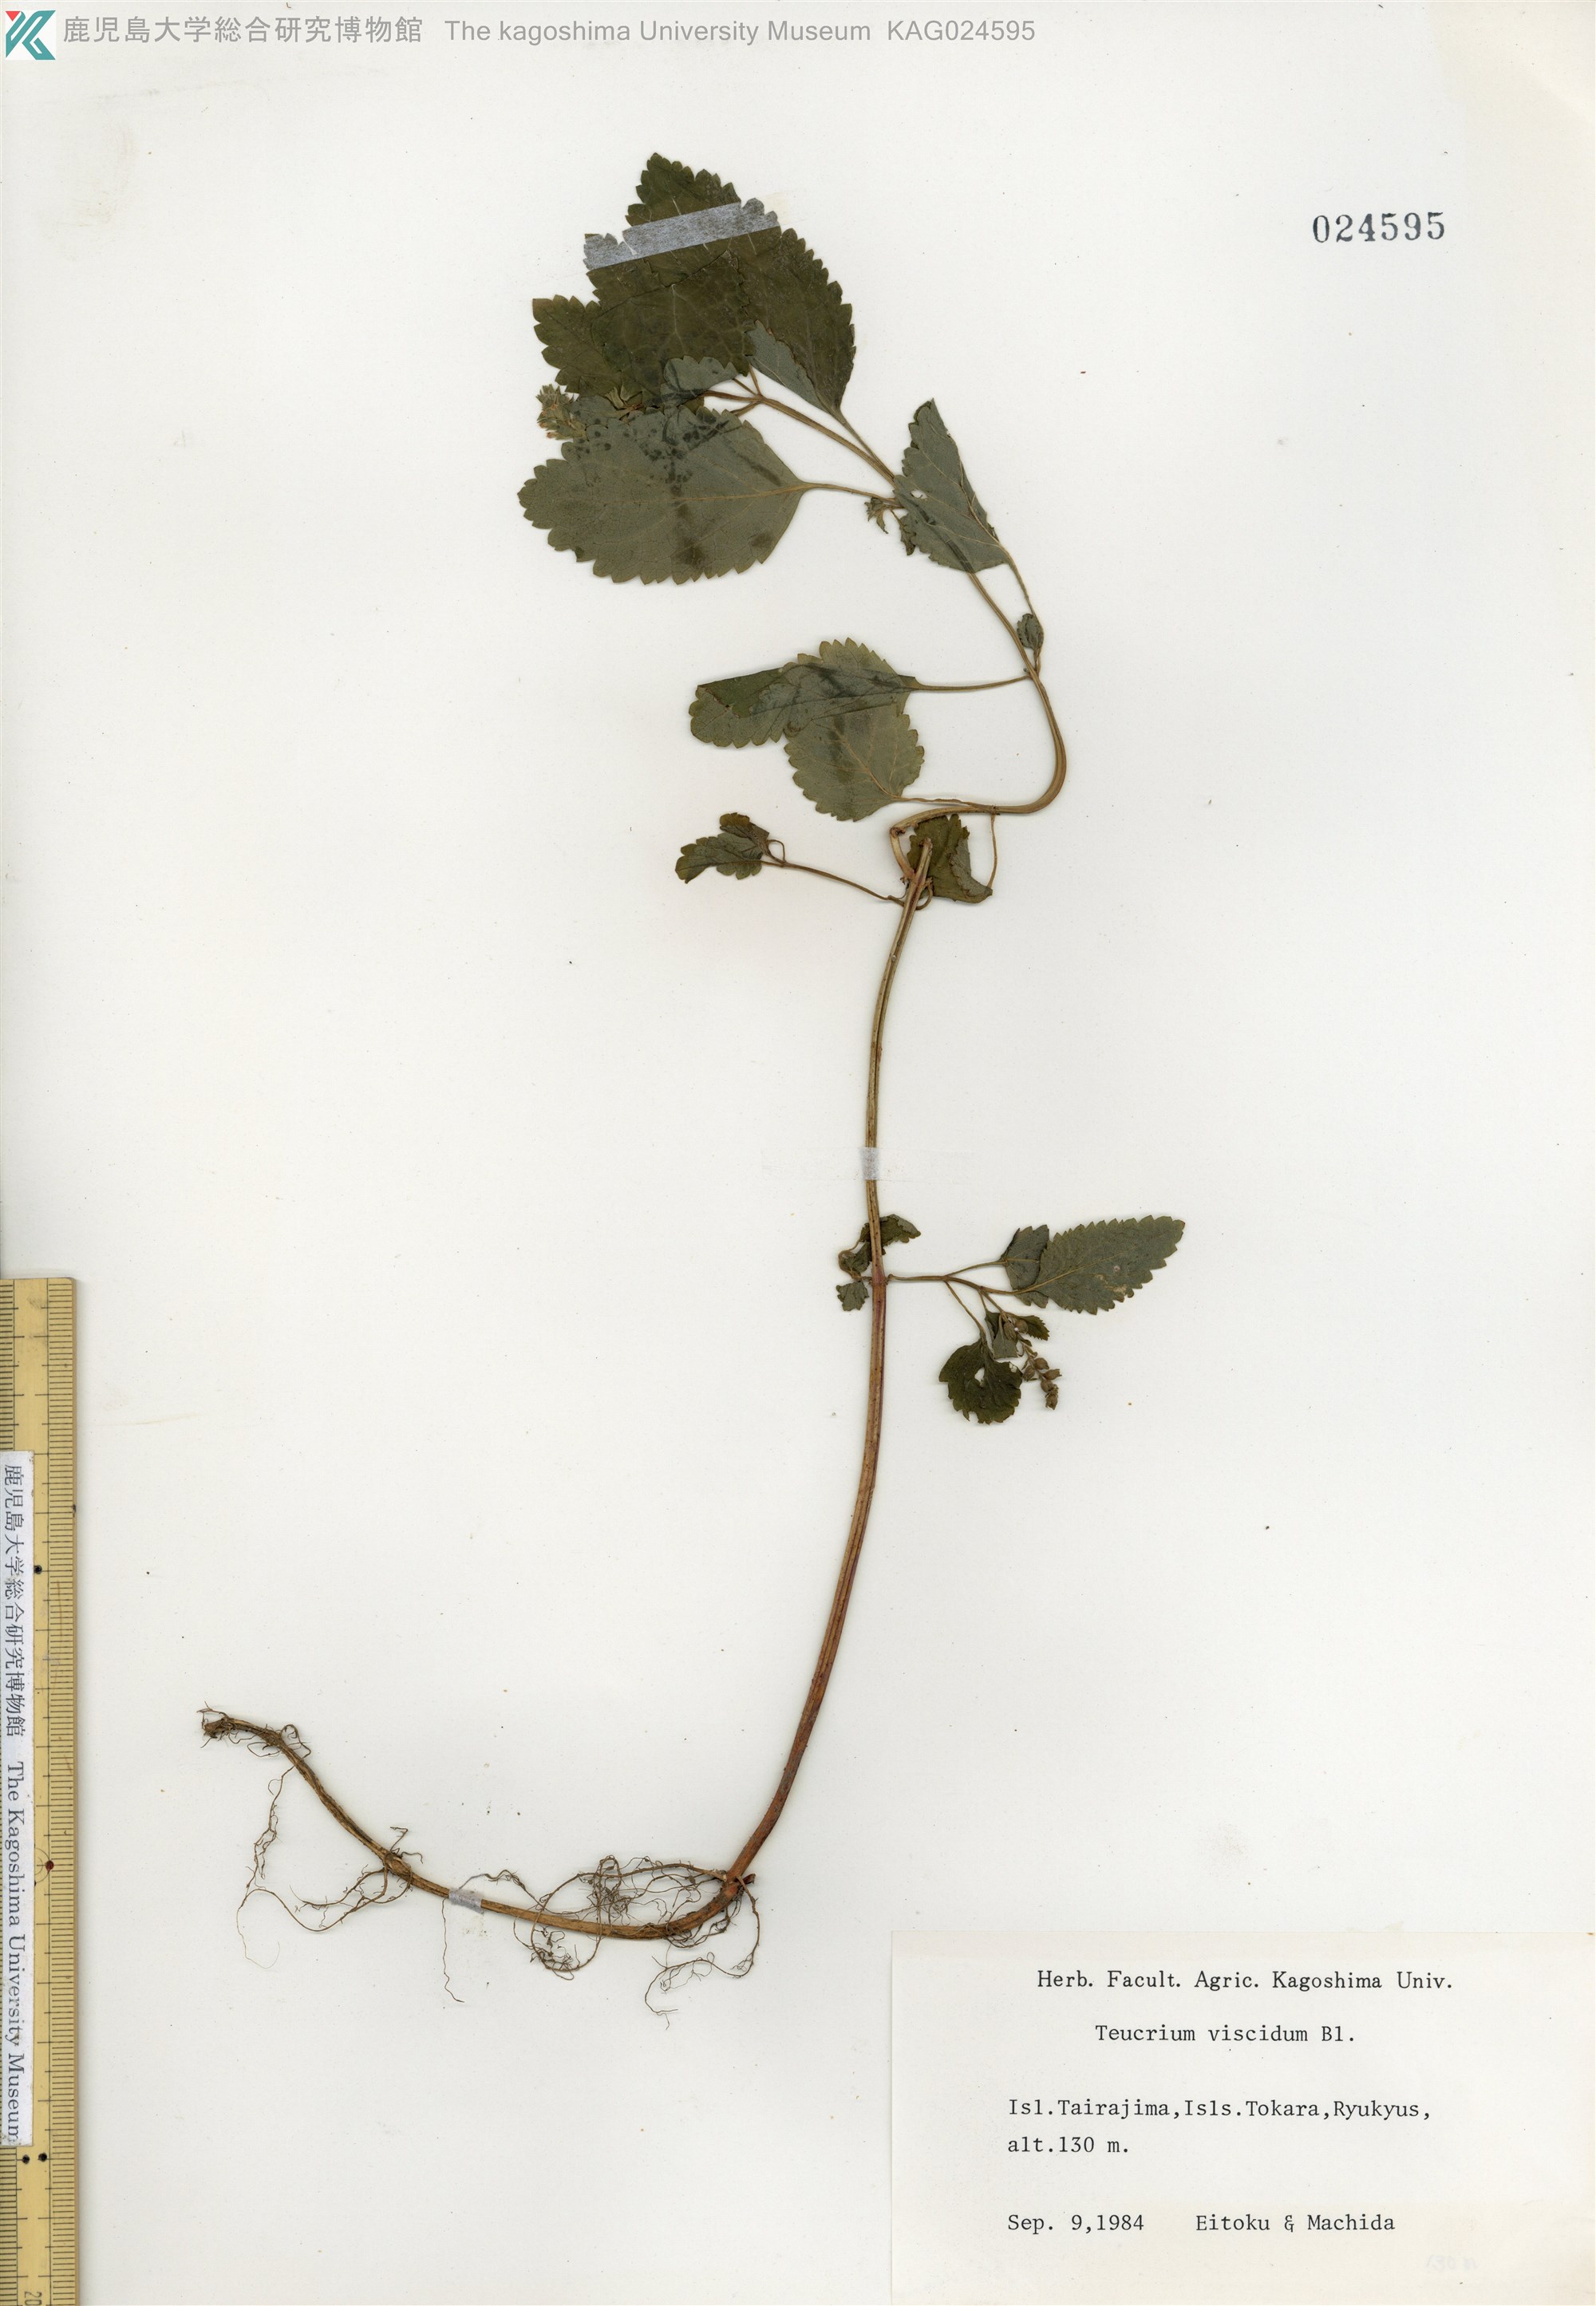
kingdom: Plantae
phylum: Tracheophyta
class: Magnoliopsida
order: Lamiales
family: Lamiaceae
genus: Teucrium
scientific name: Teucrium viscidum
